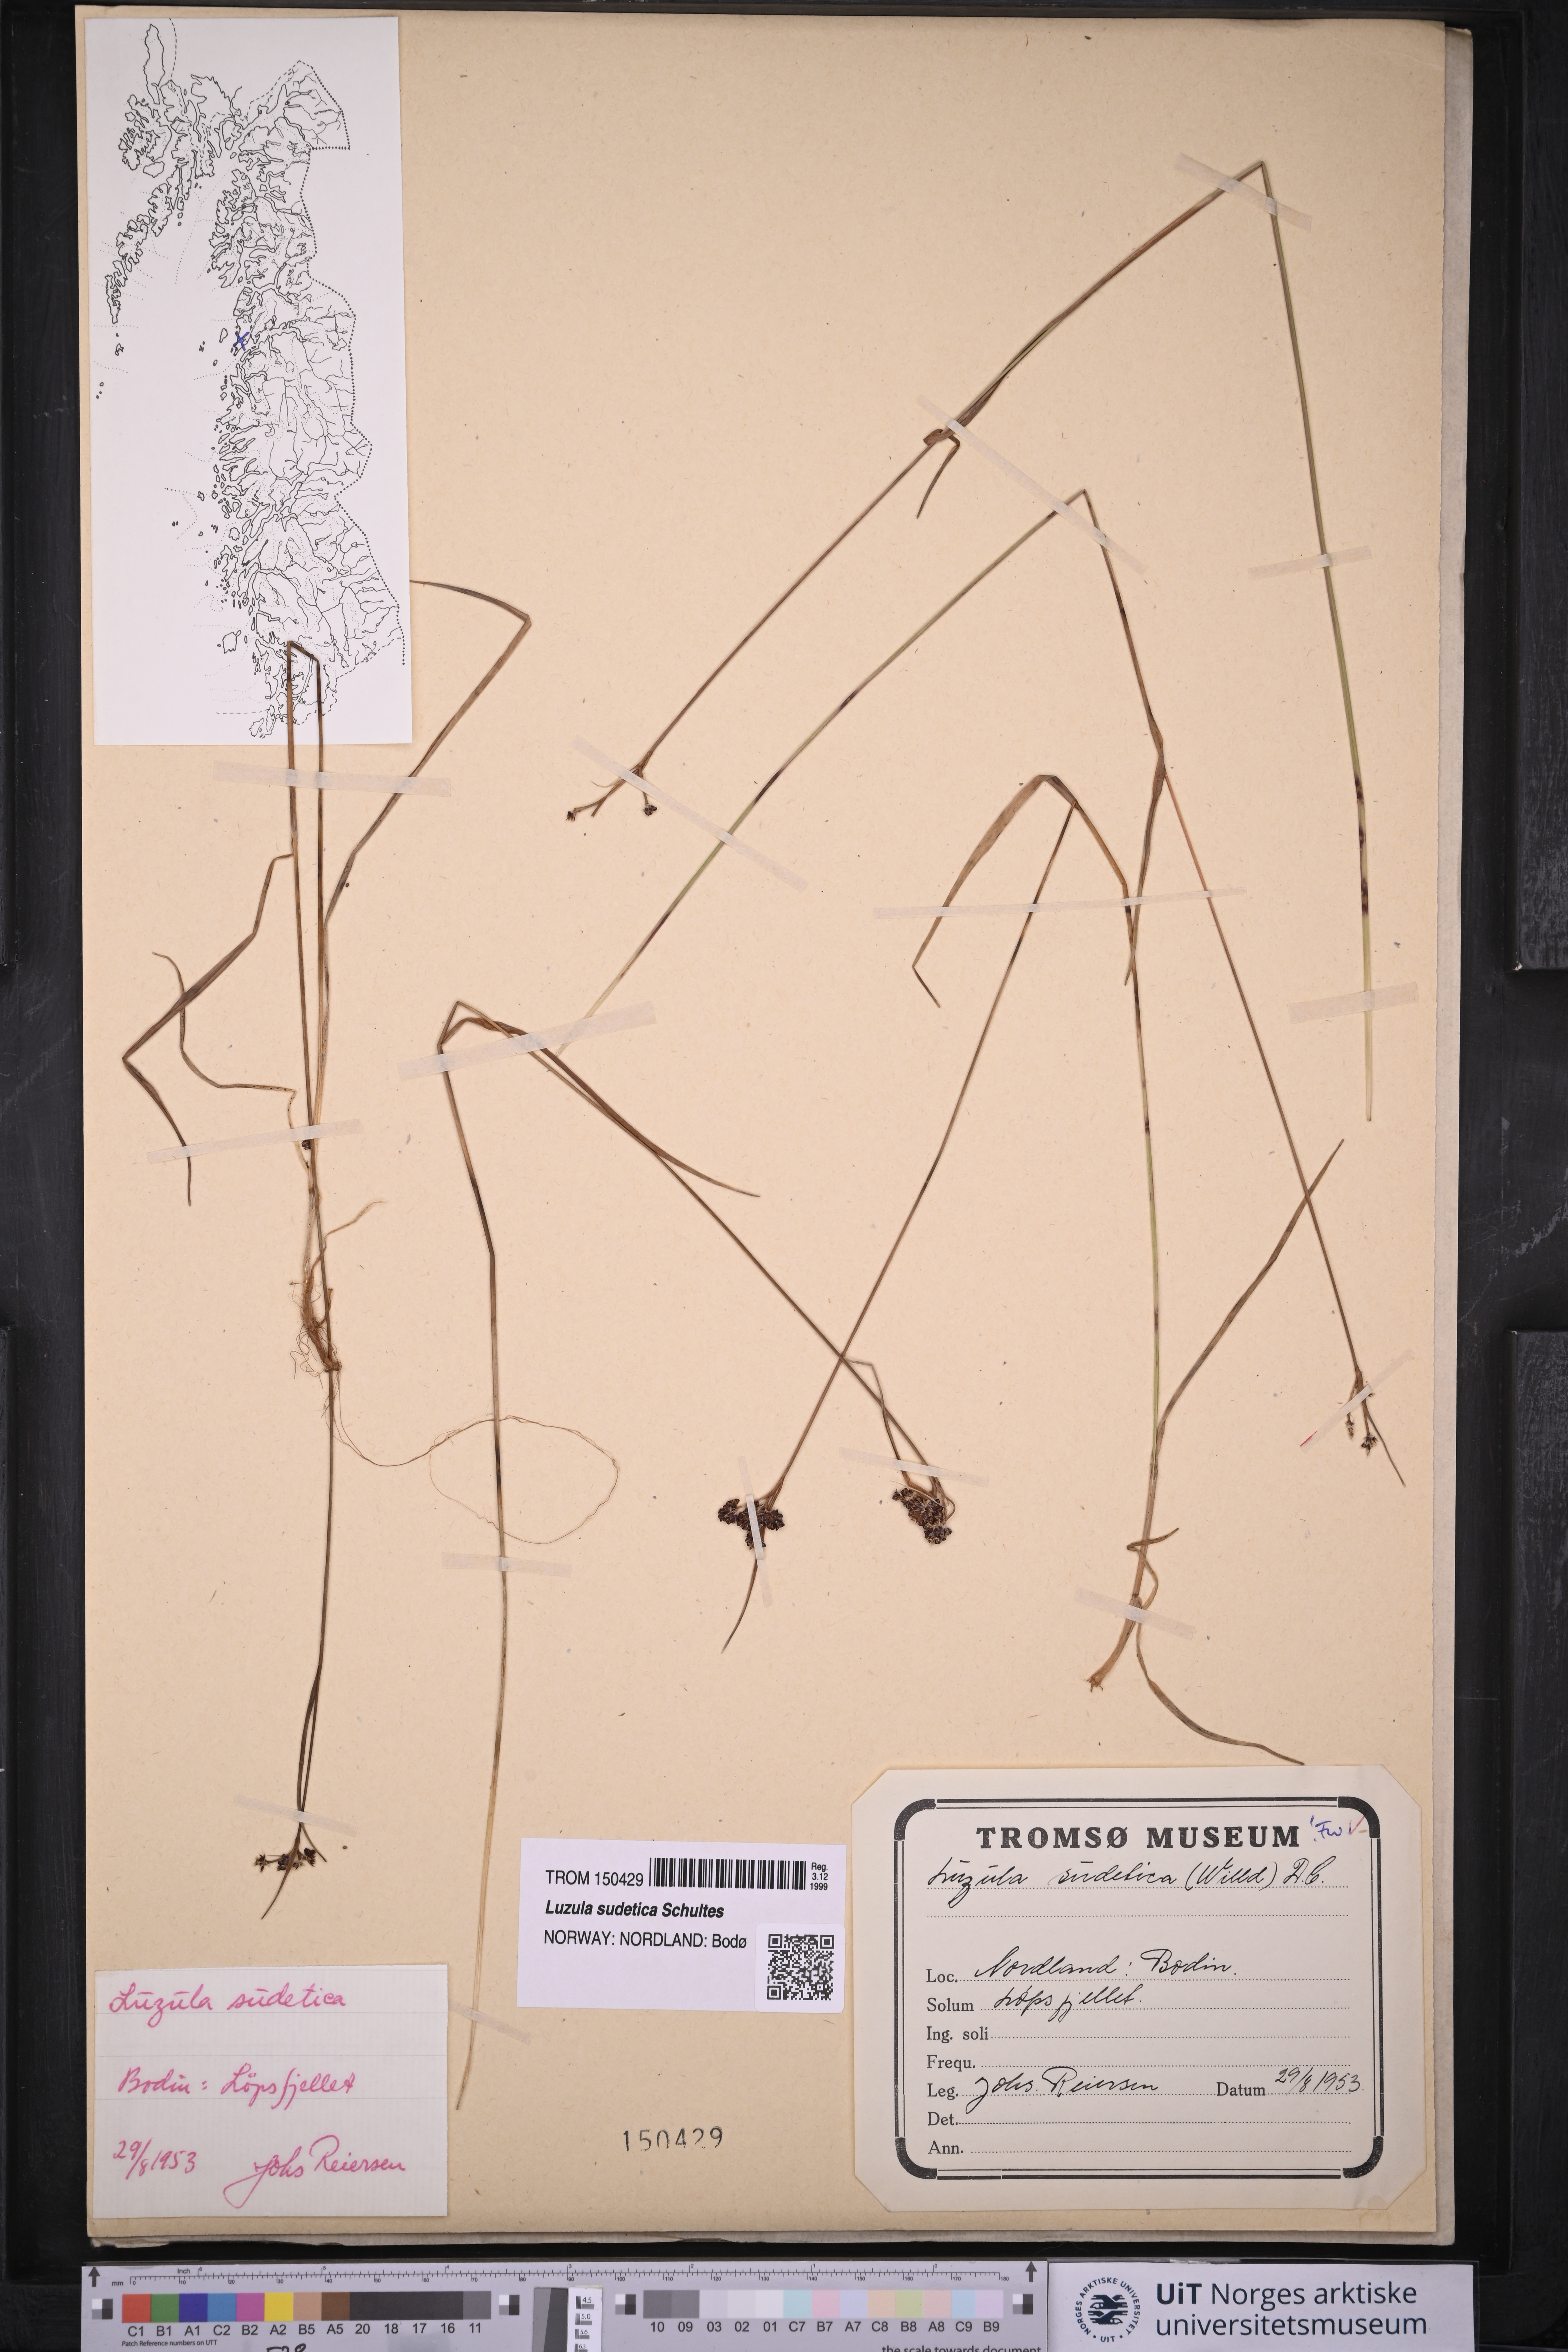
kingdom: Plantae
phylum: Tracheophyta
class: Liliopsida
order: Poales
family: Juncaceae
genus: Luzula
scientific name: Luzula sudetica
